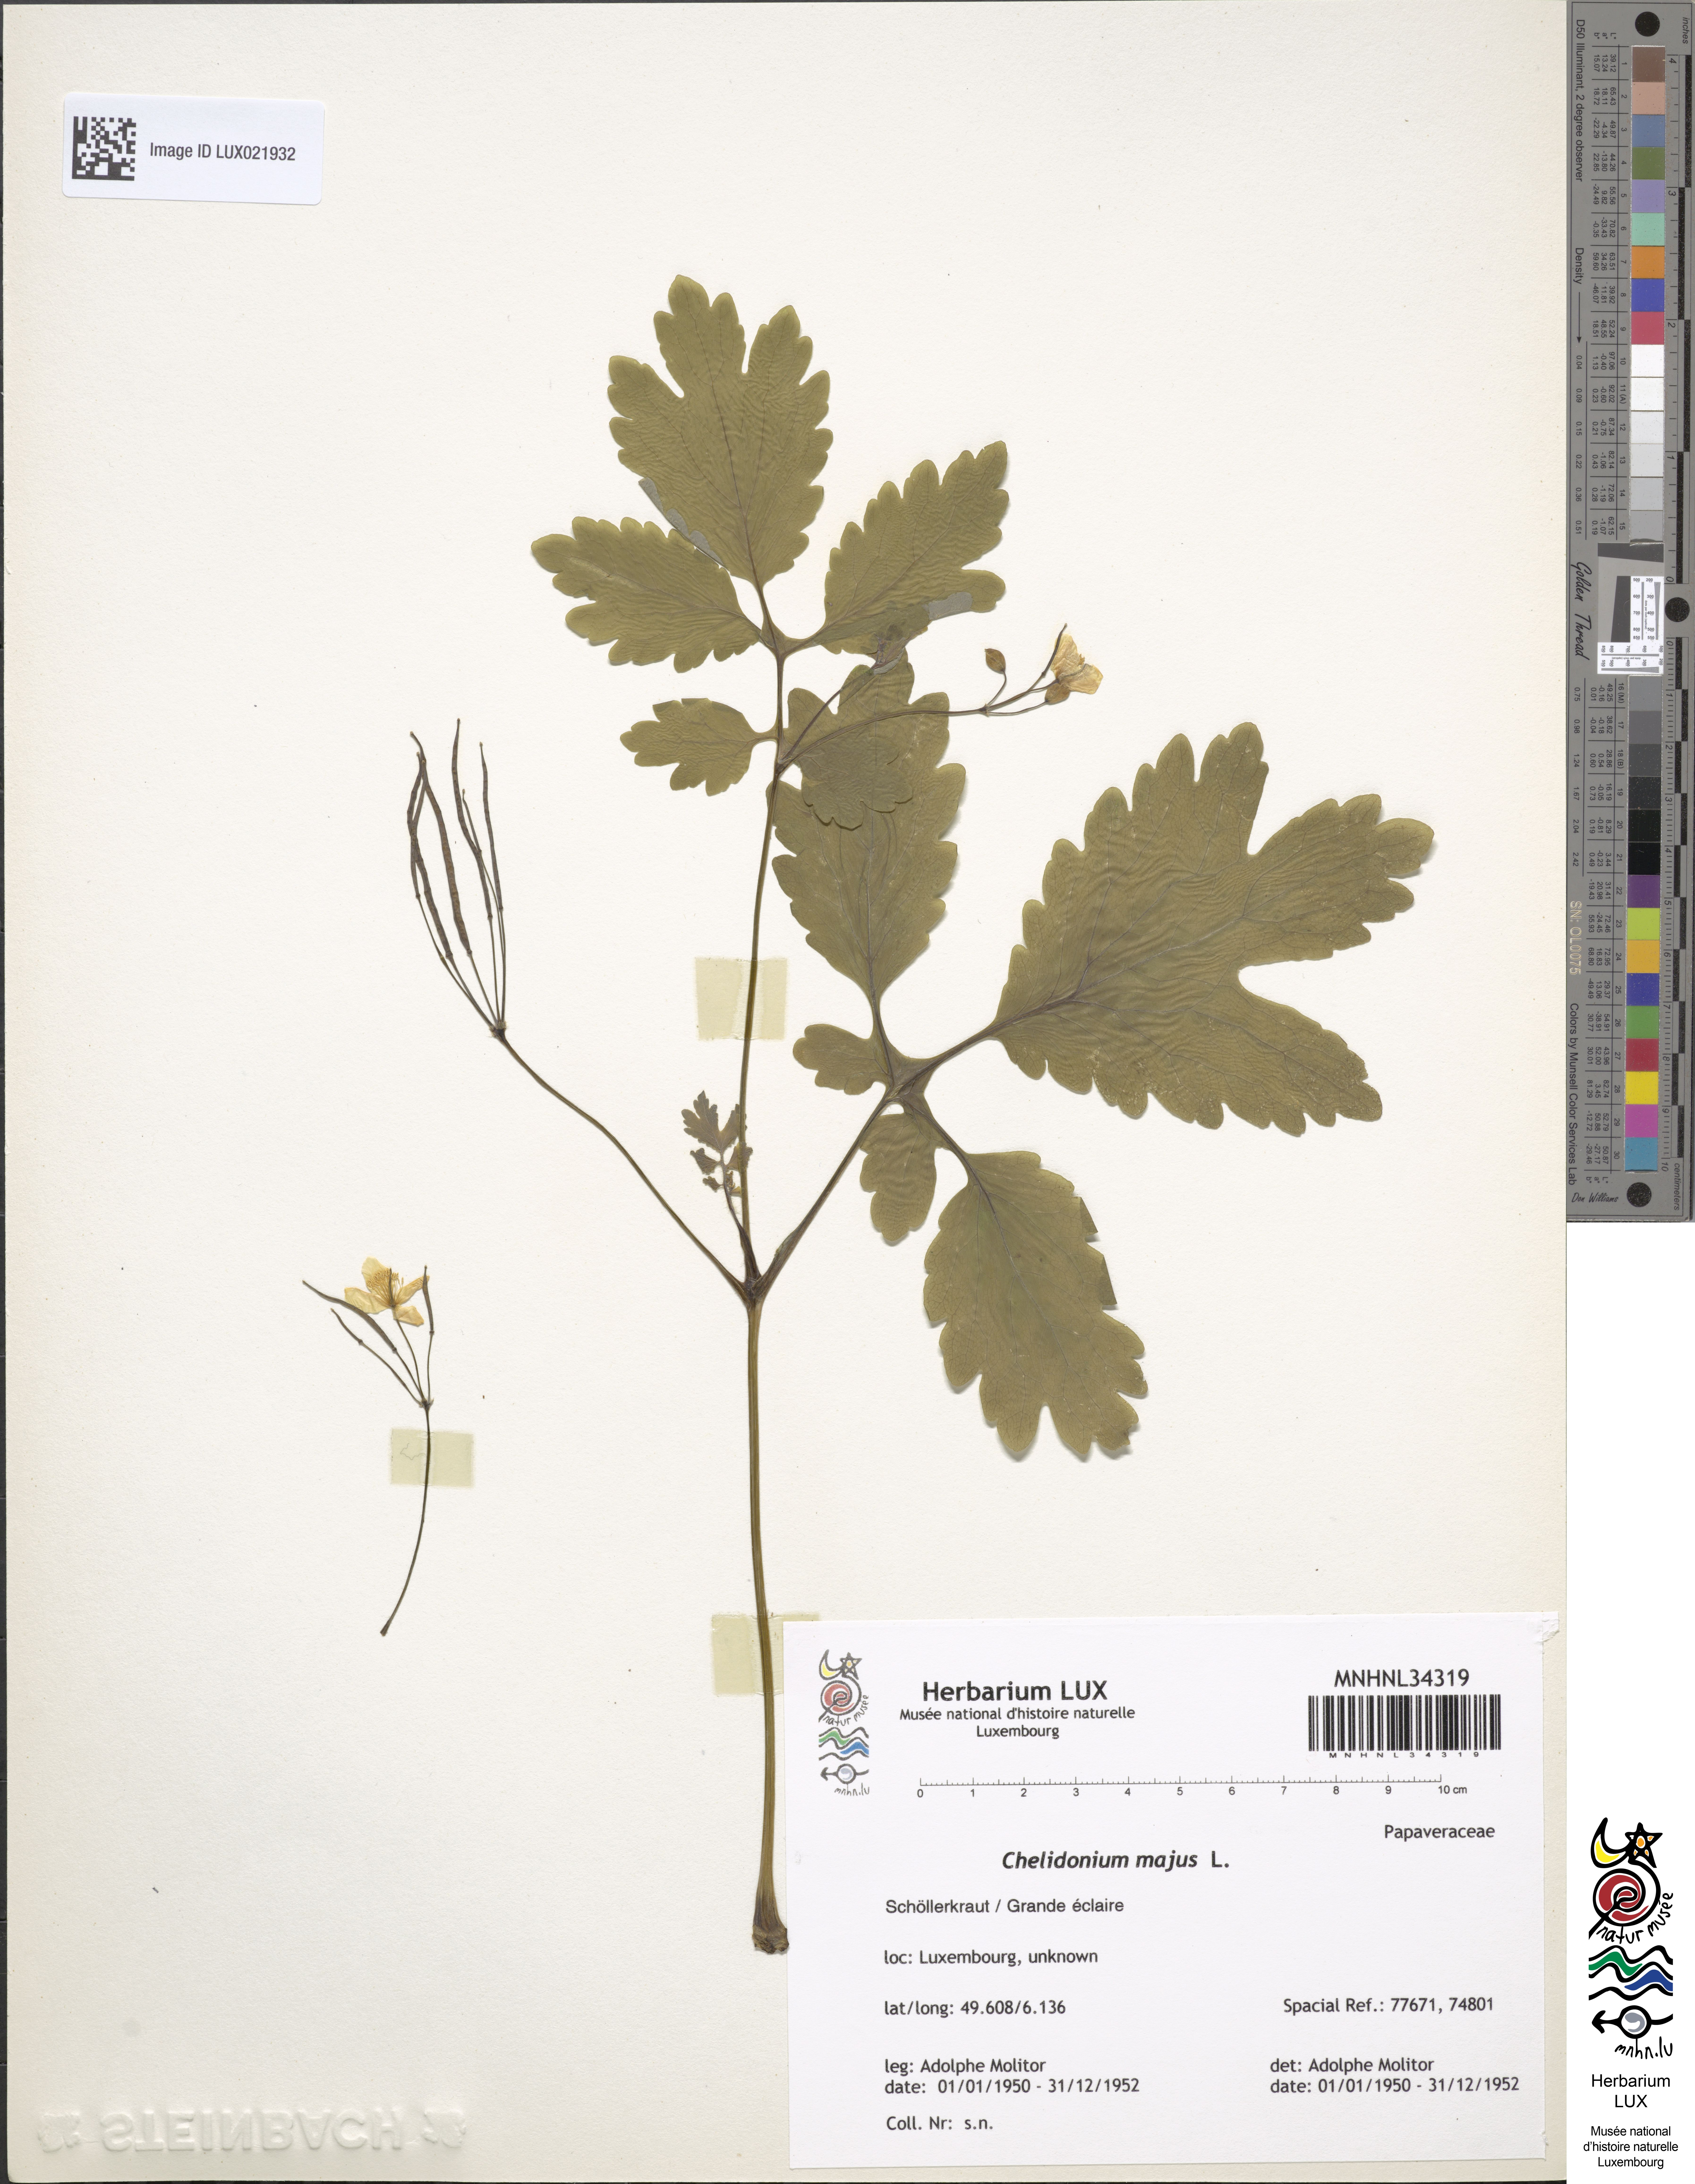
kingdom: Plantae
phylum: Tracheophyta
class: Magnoliopsida
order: Ranunculales
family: Papaveraceae
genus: Chelidonium
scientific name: Chelidonium majus
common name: Greater celandine
